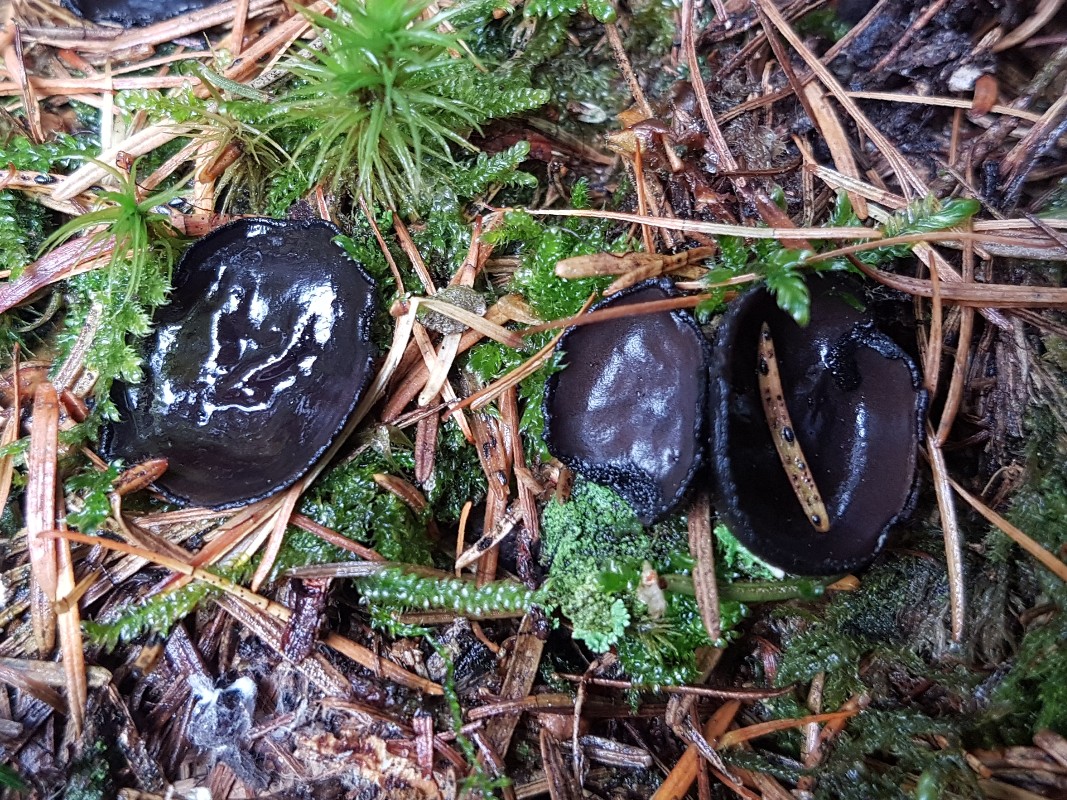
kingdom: Fungi
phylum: Ascomycota
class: Pezizomycetes
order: Pezizales
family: Sarcosomataceae
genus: Pseudoplectania
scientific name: Pseudoplectania nigrella
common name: almindelig sortbæger
